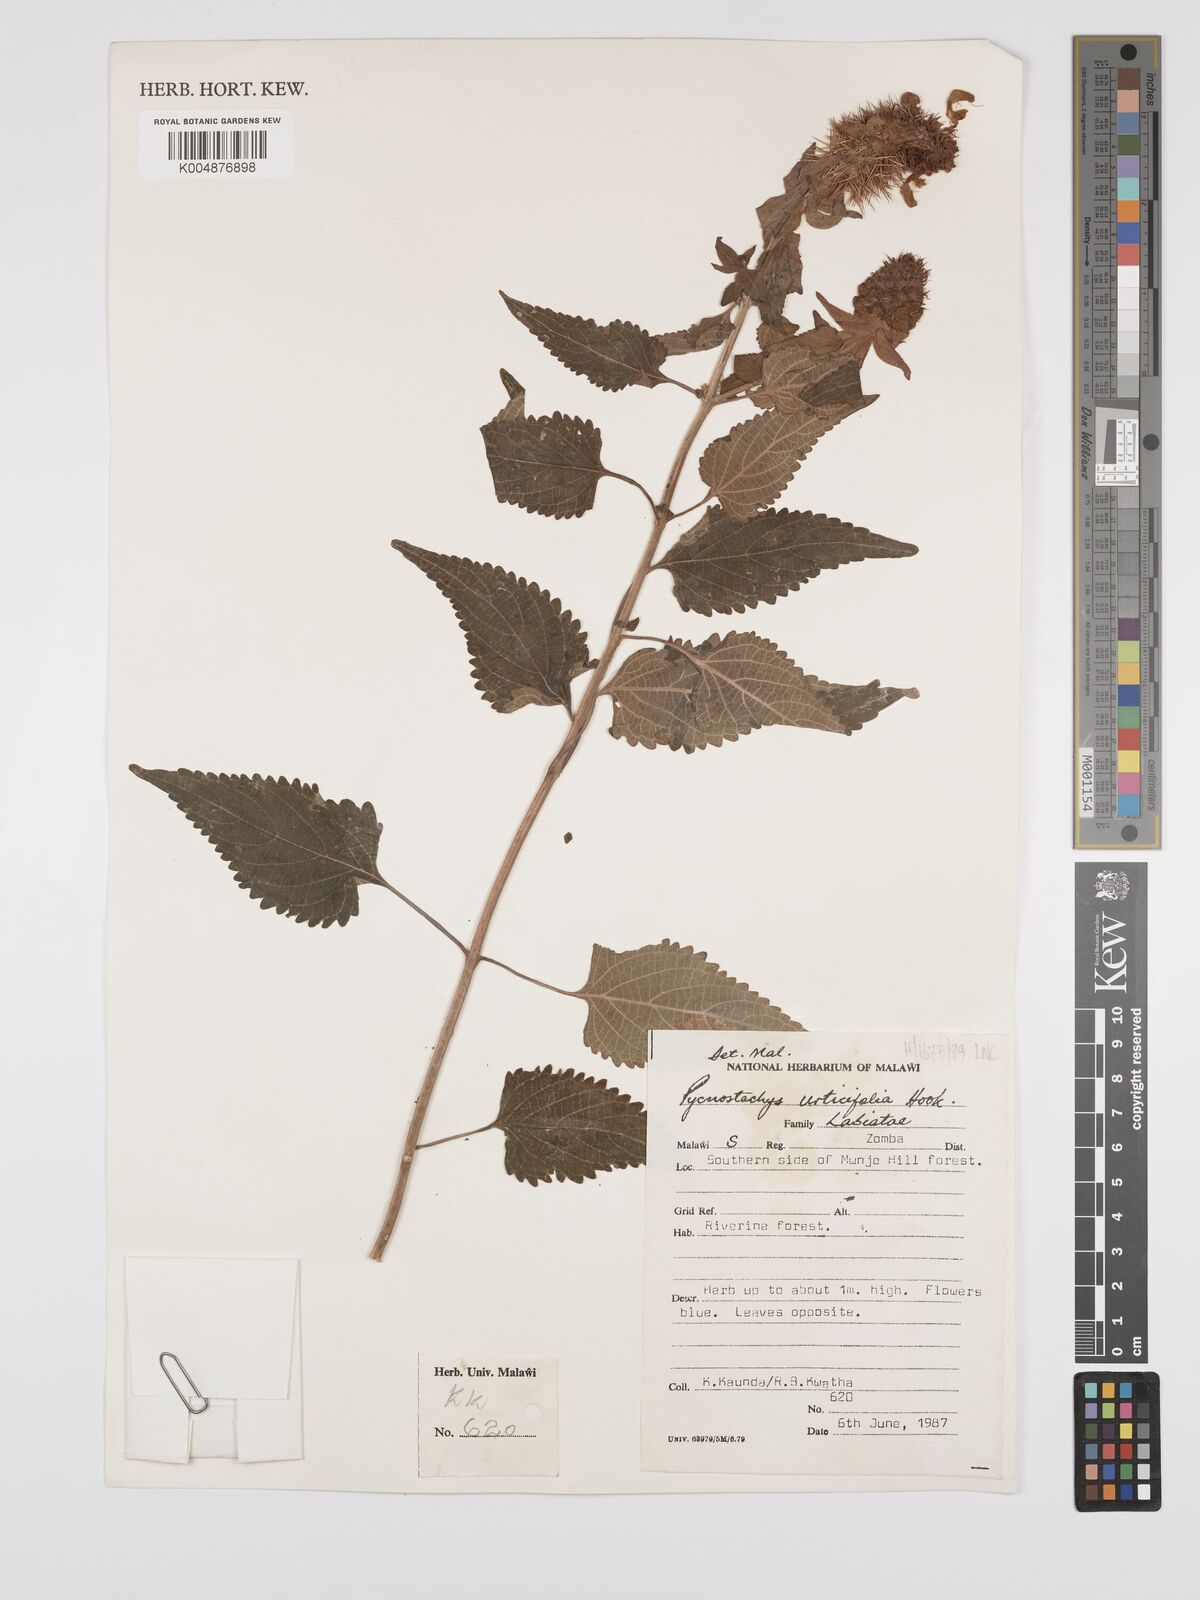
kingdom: Plantae
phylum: Tracheophyta
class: Magnoliopsida
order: Lamiales
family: Lamiaceae
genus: Coleus
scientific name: Coleus livingstonei
